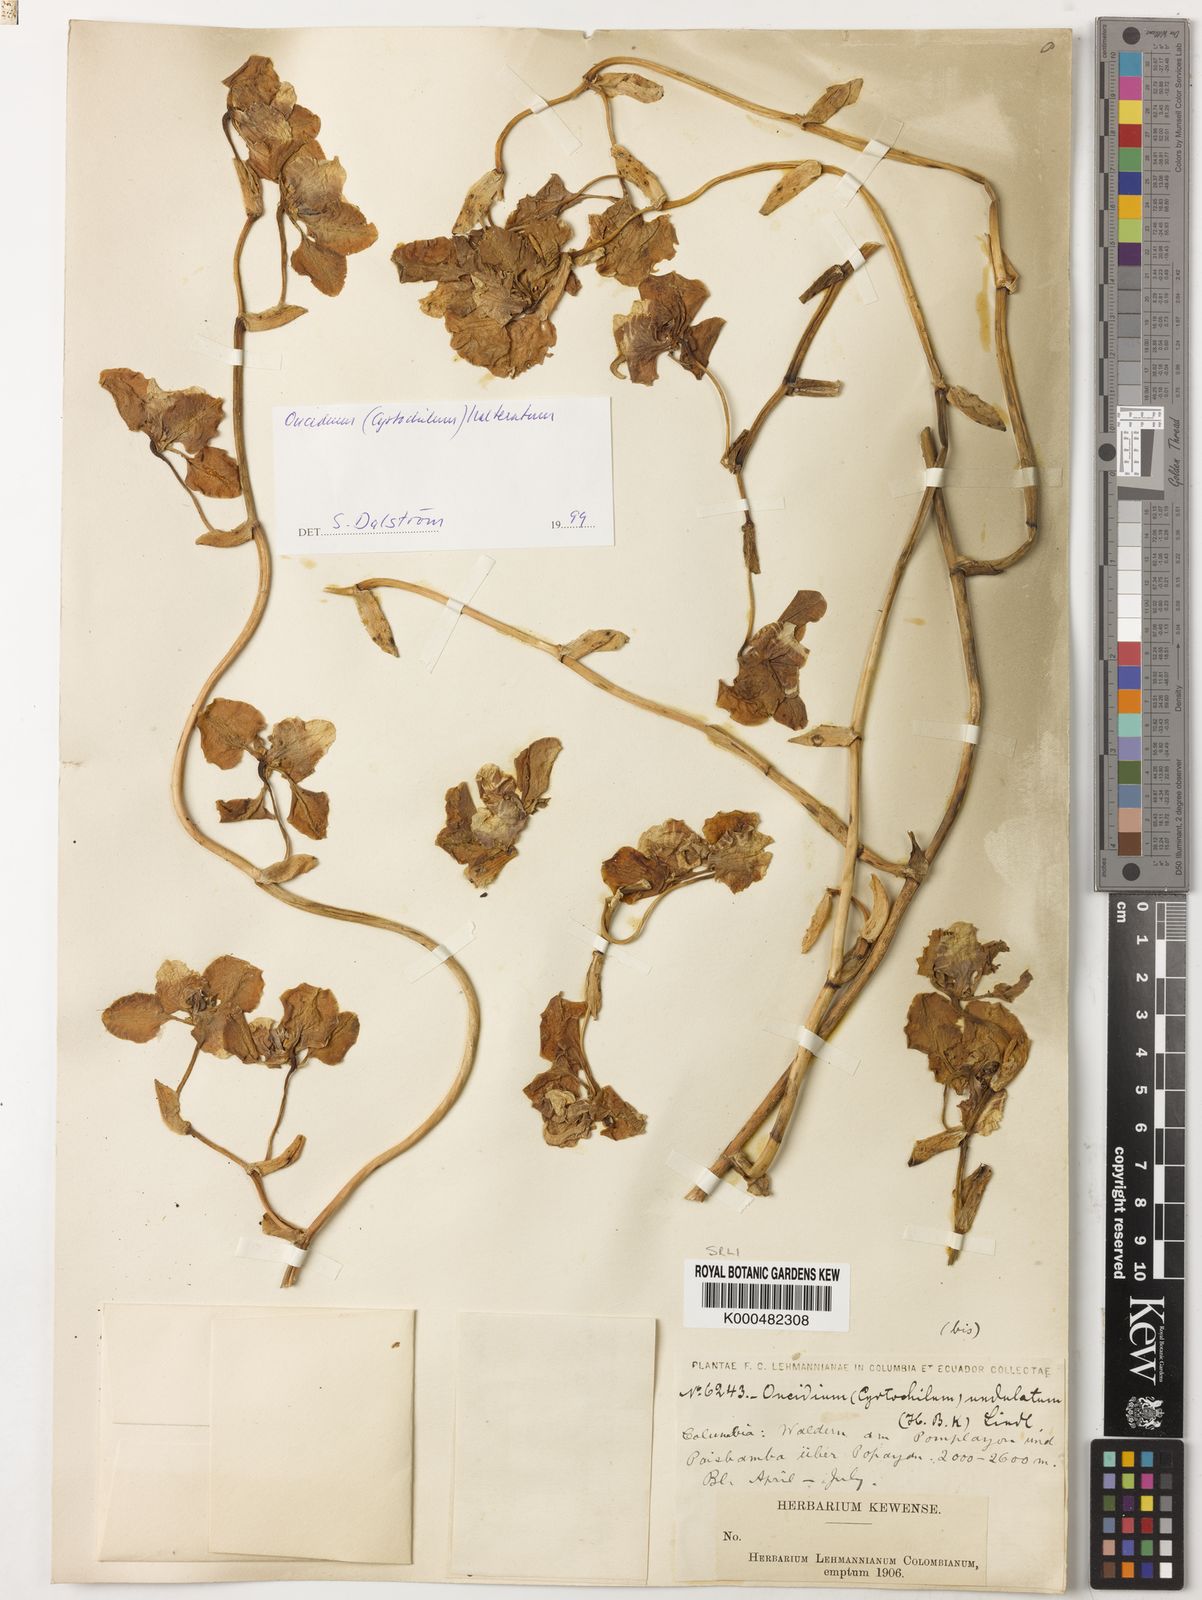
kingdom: Plantae
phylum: Tracheophyta
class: Liliopsida
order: Asparagales
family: Orchidaceae
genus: Cyrtochilum
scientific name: Cyrtochilum halteratum
